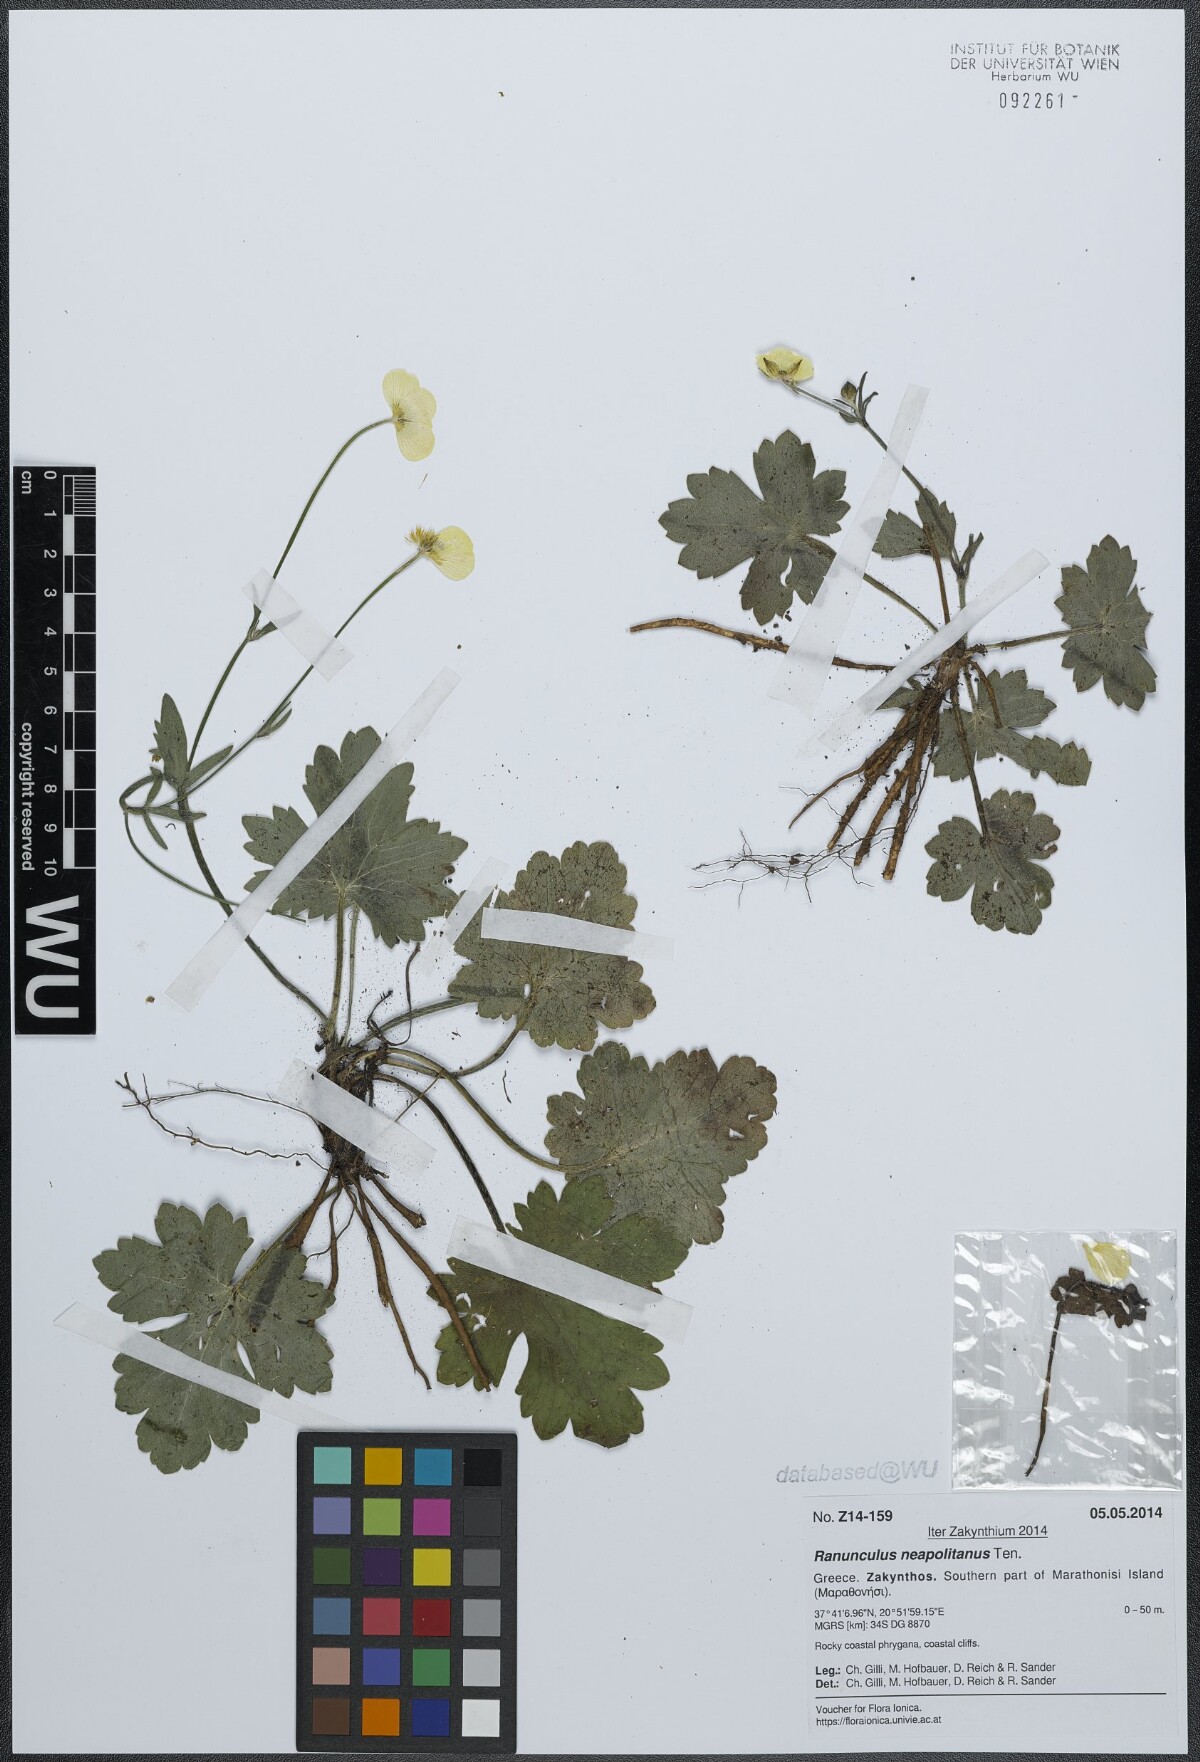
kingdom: Plantae
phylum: Tracheophyta
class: Magnoliopsida
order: Ranunculales
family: Ranunculaceae
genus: Ranunculus
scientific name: Ranunculus neapolitanus
